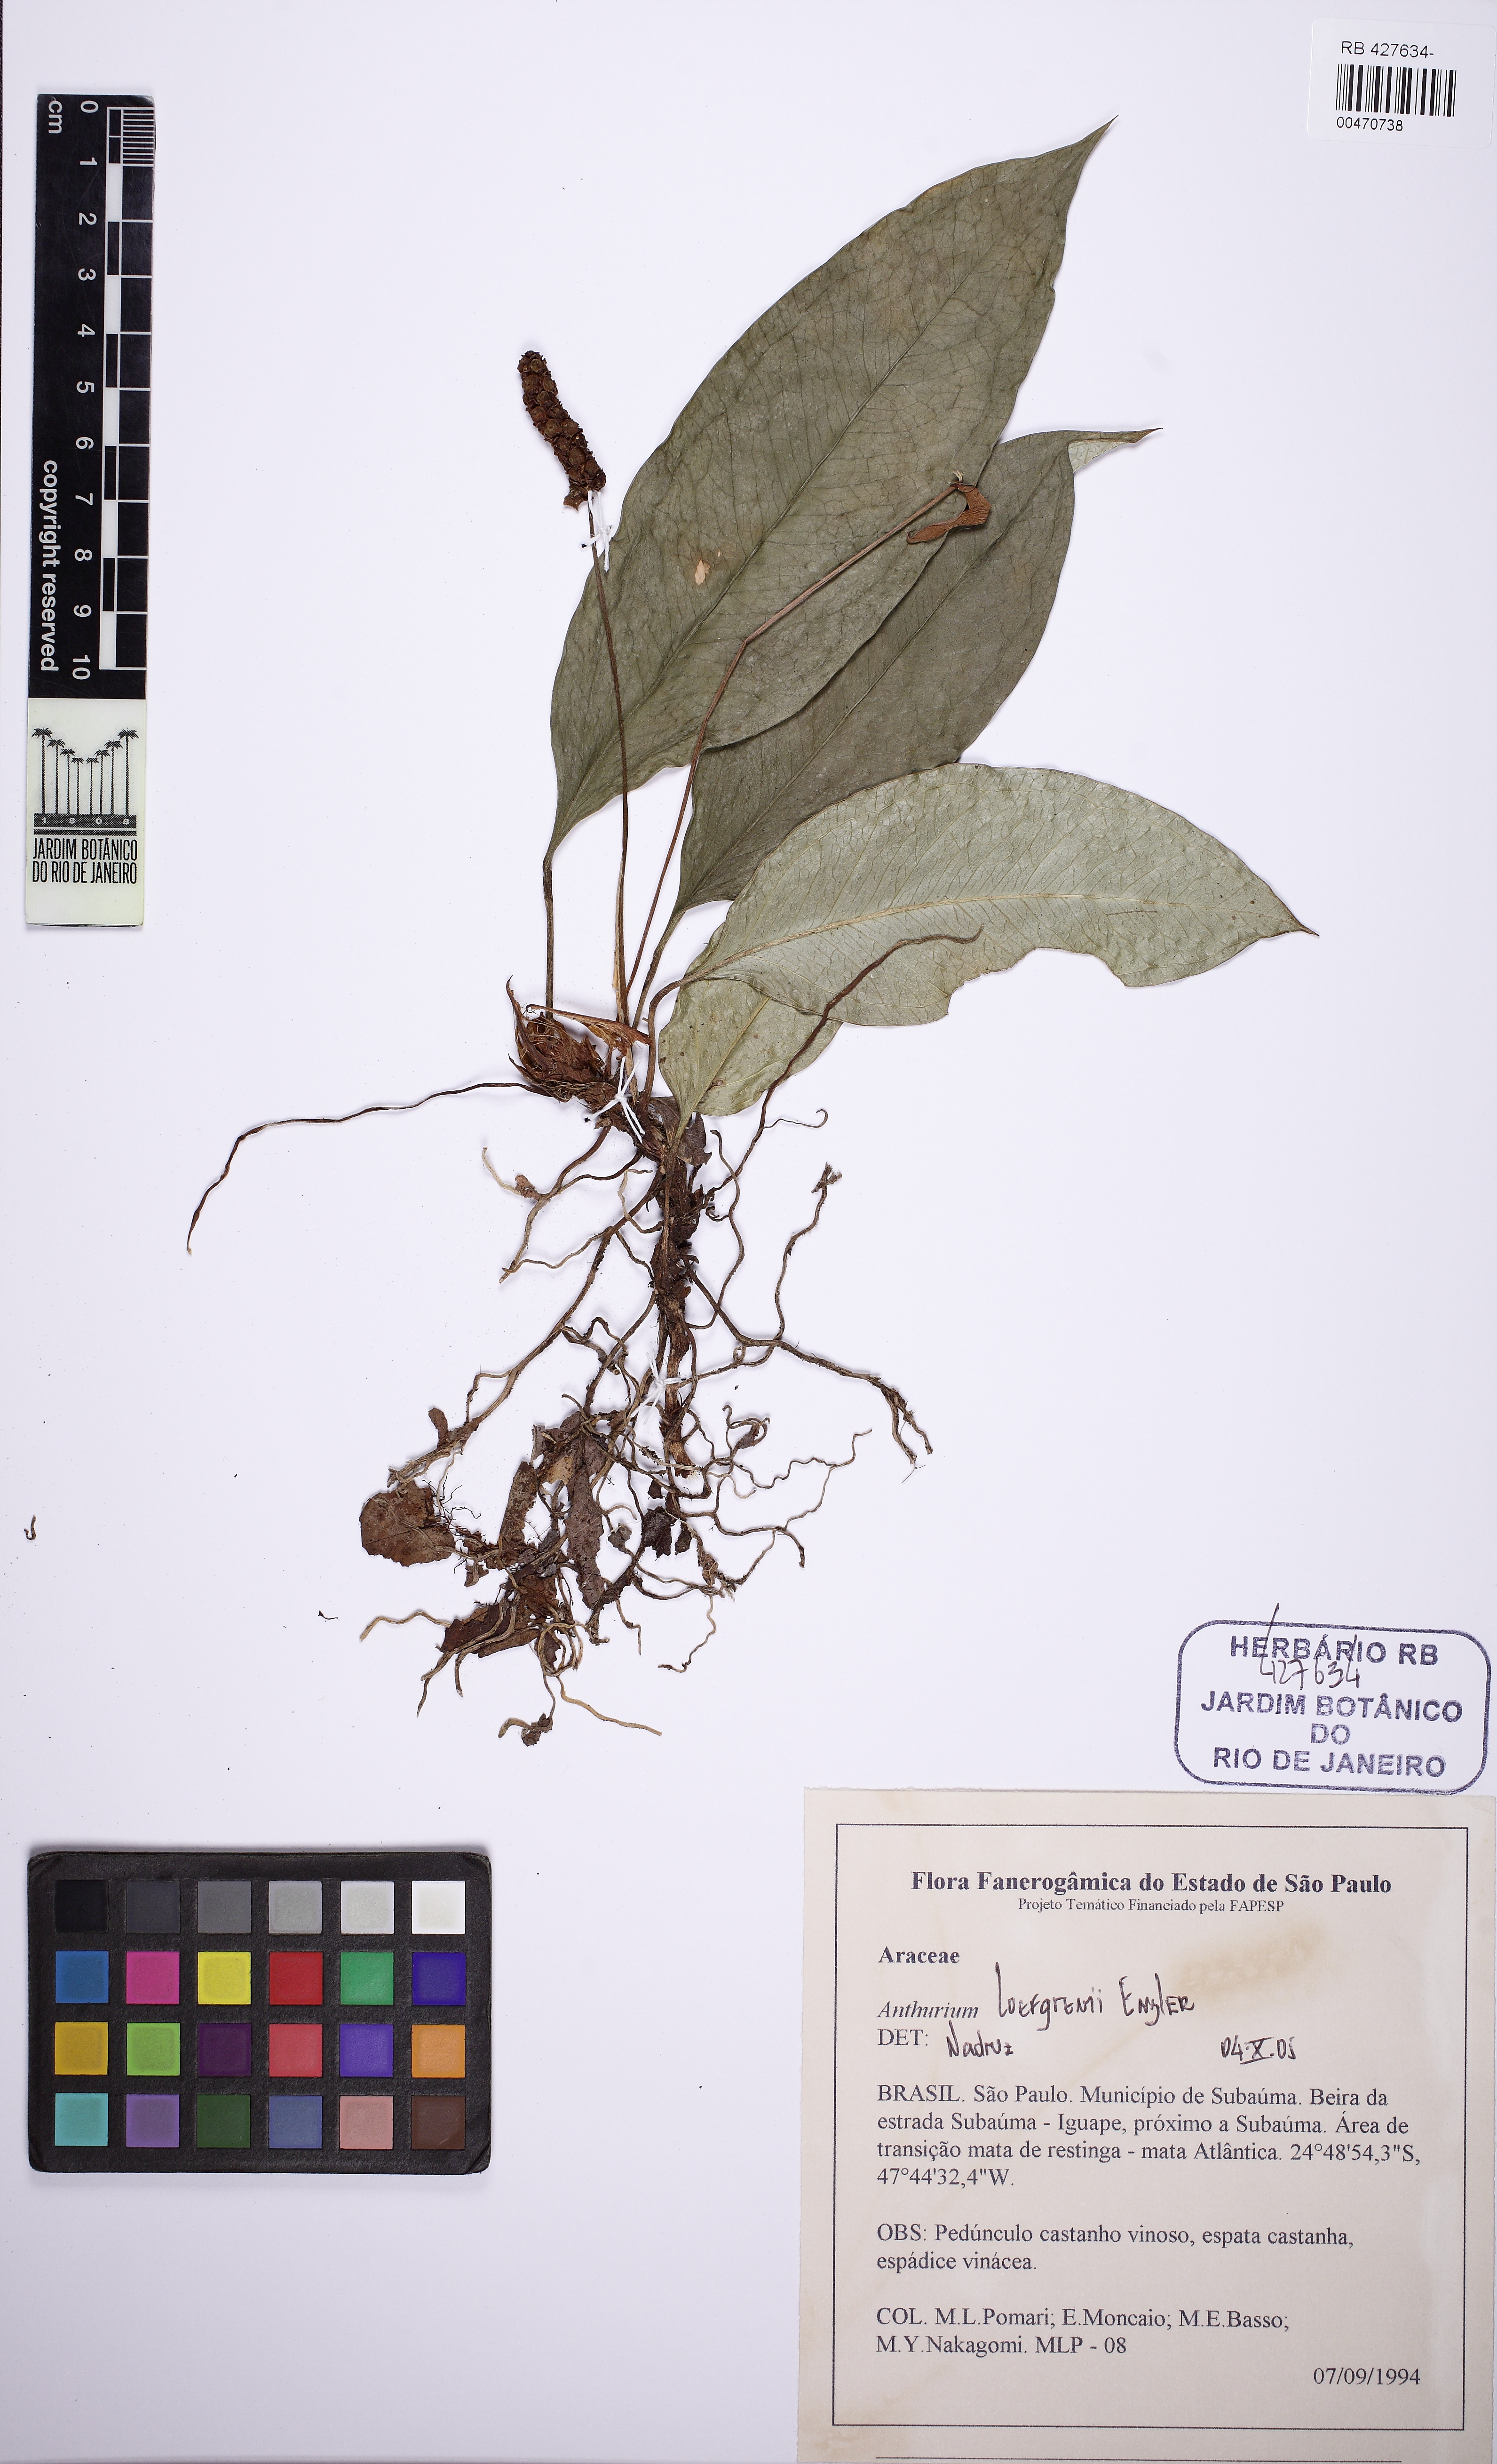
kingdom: Plantae
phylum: Tracheophyta
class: Liliopsida
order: Alismatales
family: Araceae
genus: Anthurium
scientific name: Anthurium loefgrenii
